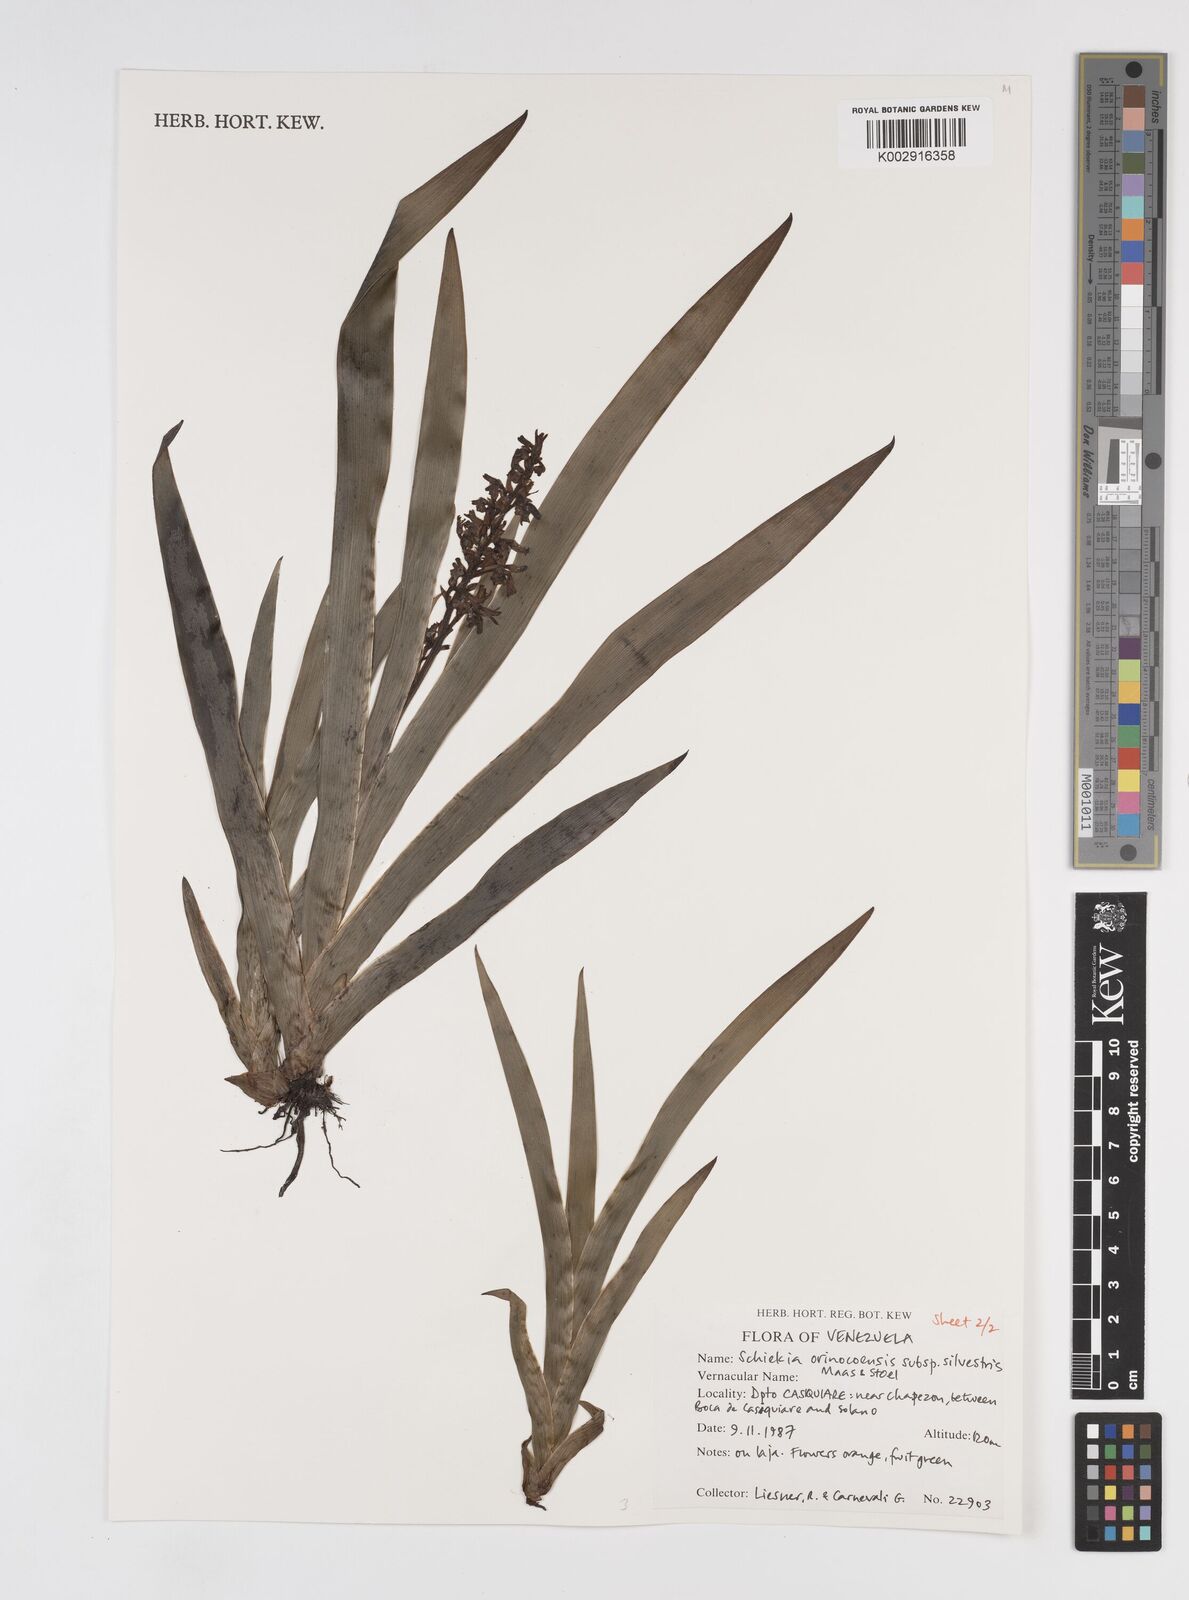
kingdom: Plantae
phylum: Tracheophyta
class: Liliopsida
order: Commelinales
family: Haemodoraceae
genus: Schiekia
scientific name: Schiekia orinocensis
